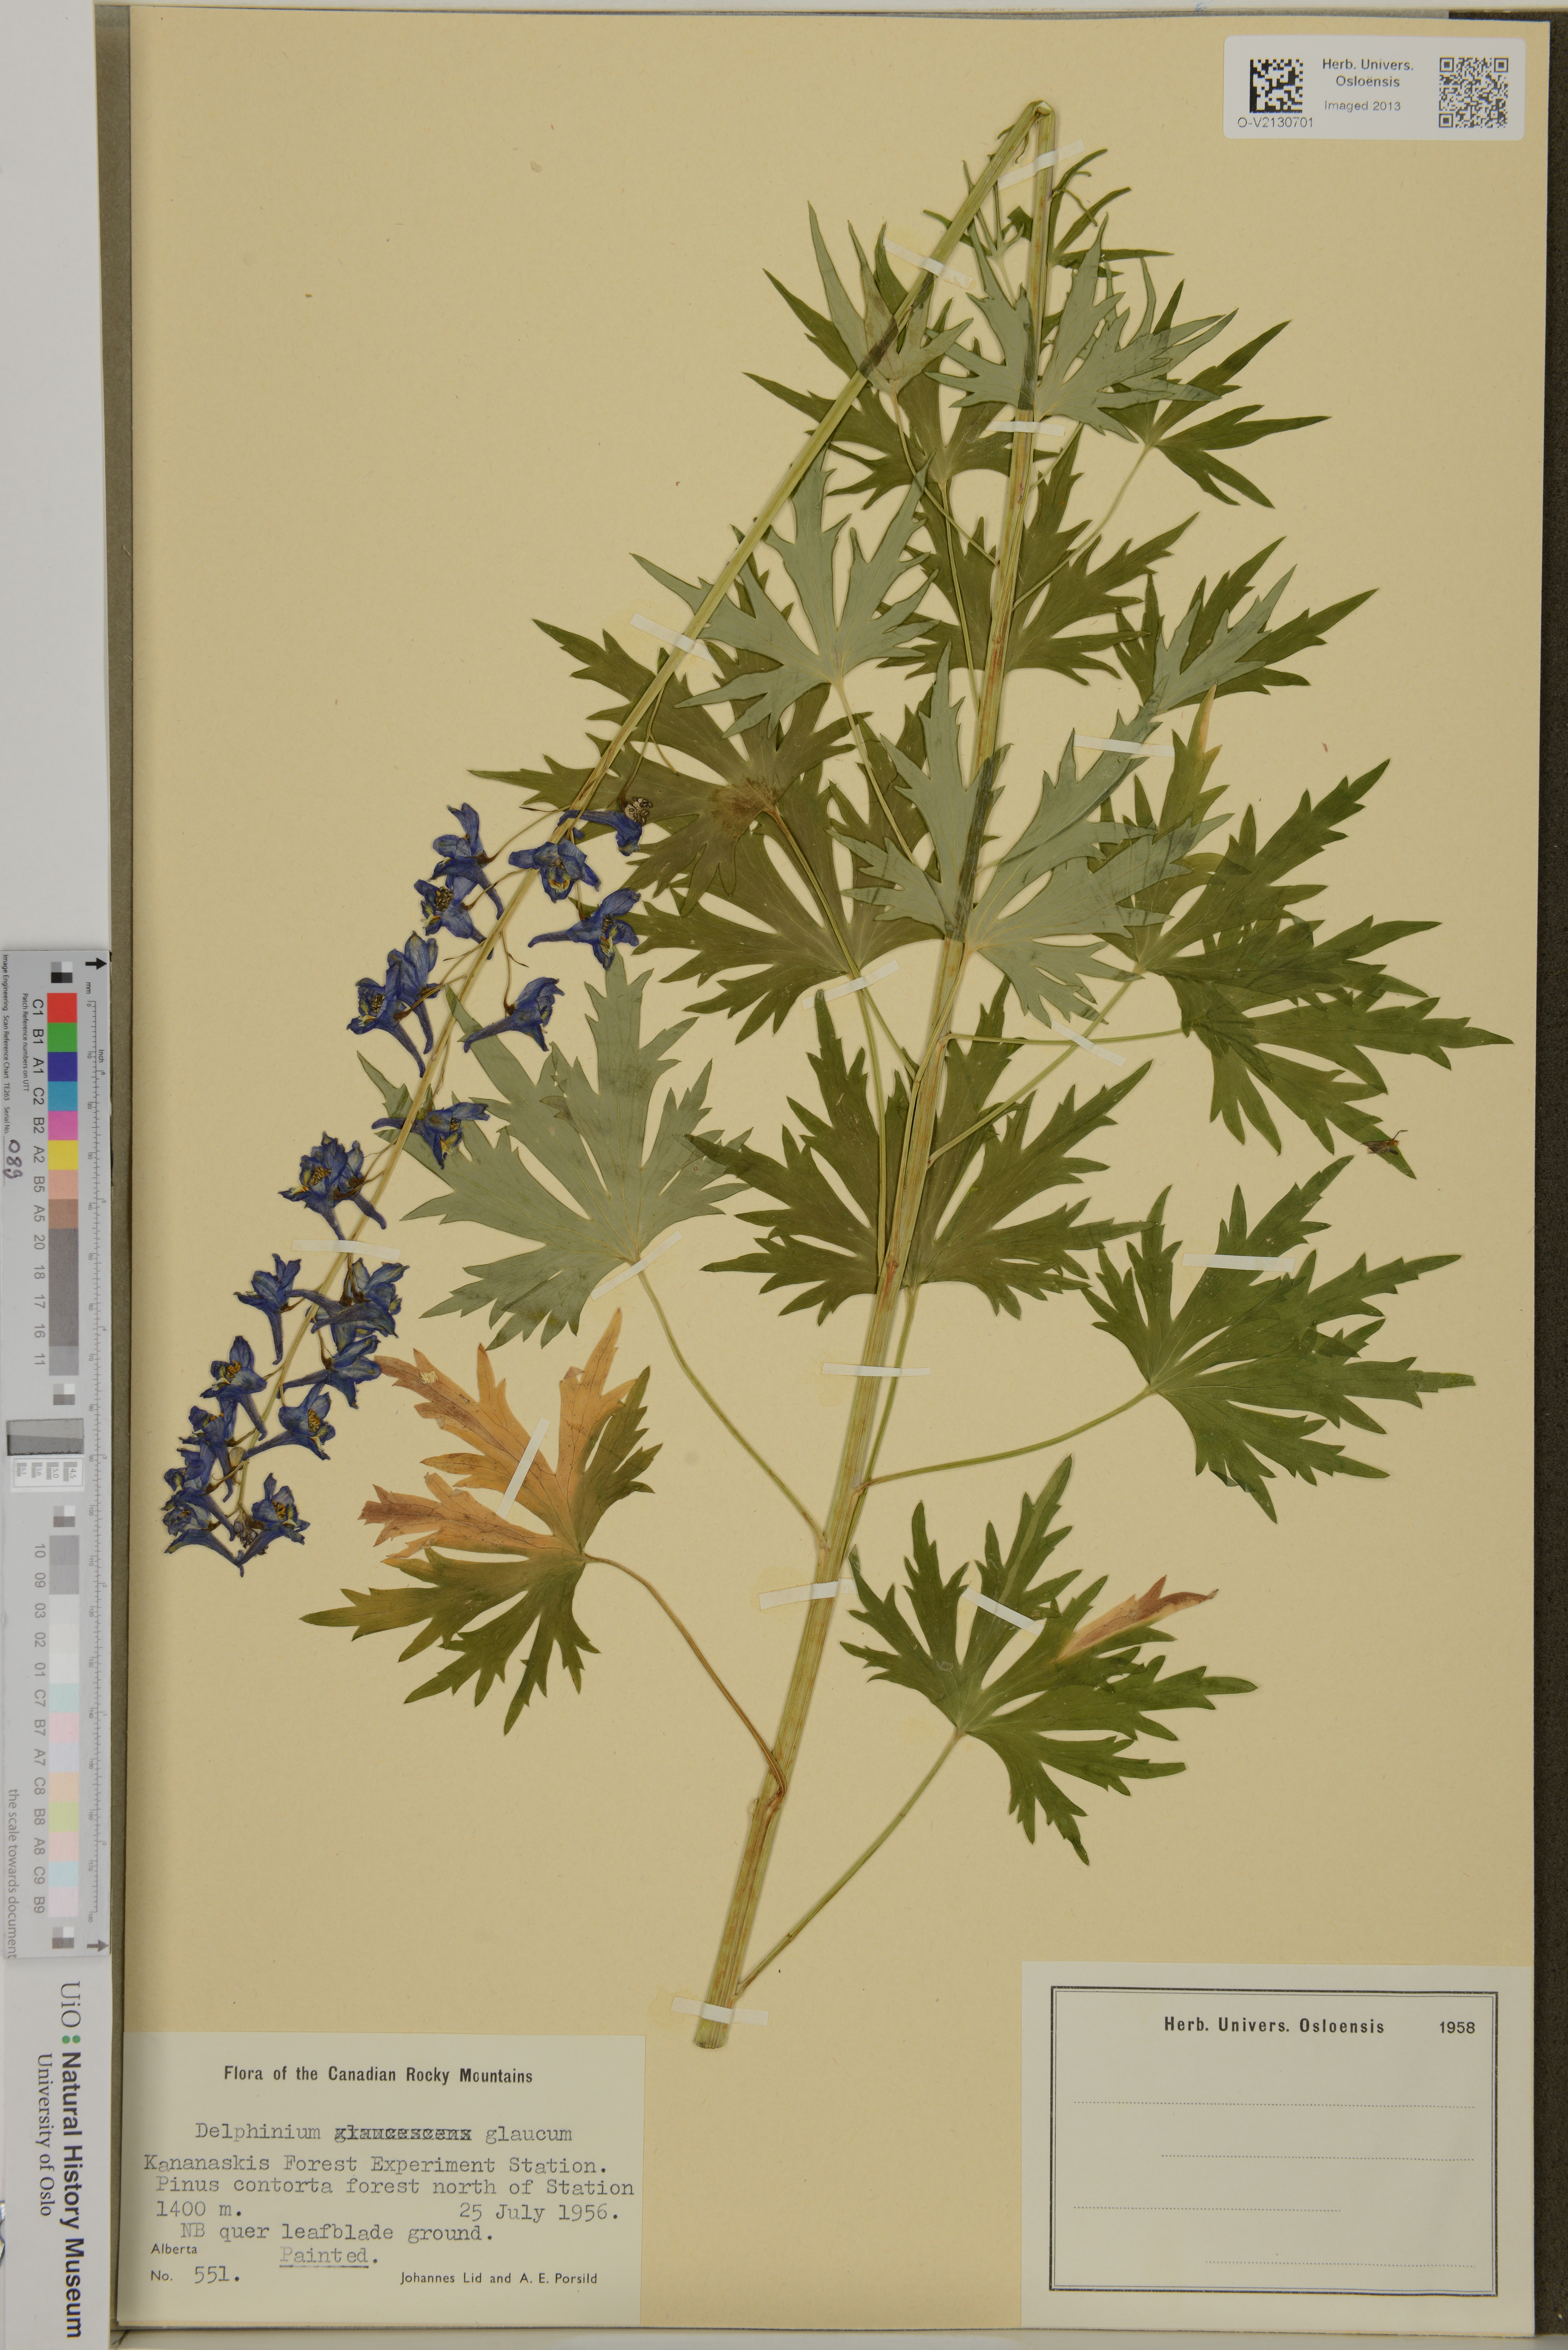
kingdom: Plantae
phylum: Tracheophyta
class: Magnoliopsida
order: Ranunculales
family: Ranunculaceae
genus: Delphinium
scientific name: Delphinium glaucum
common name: Brown's larkspur
